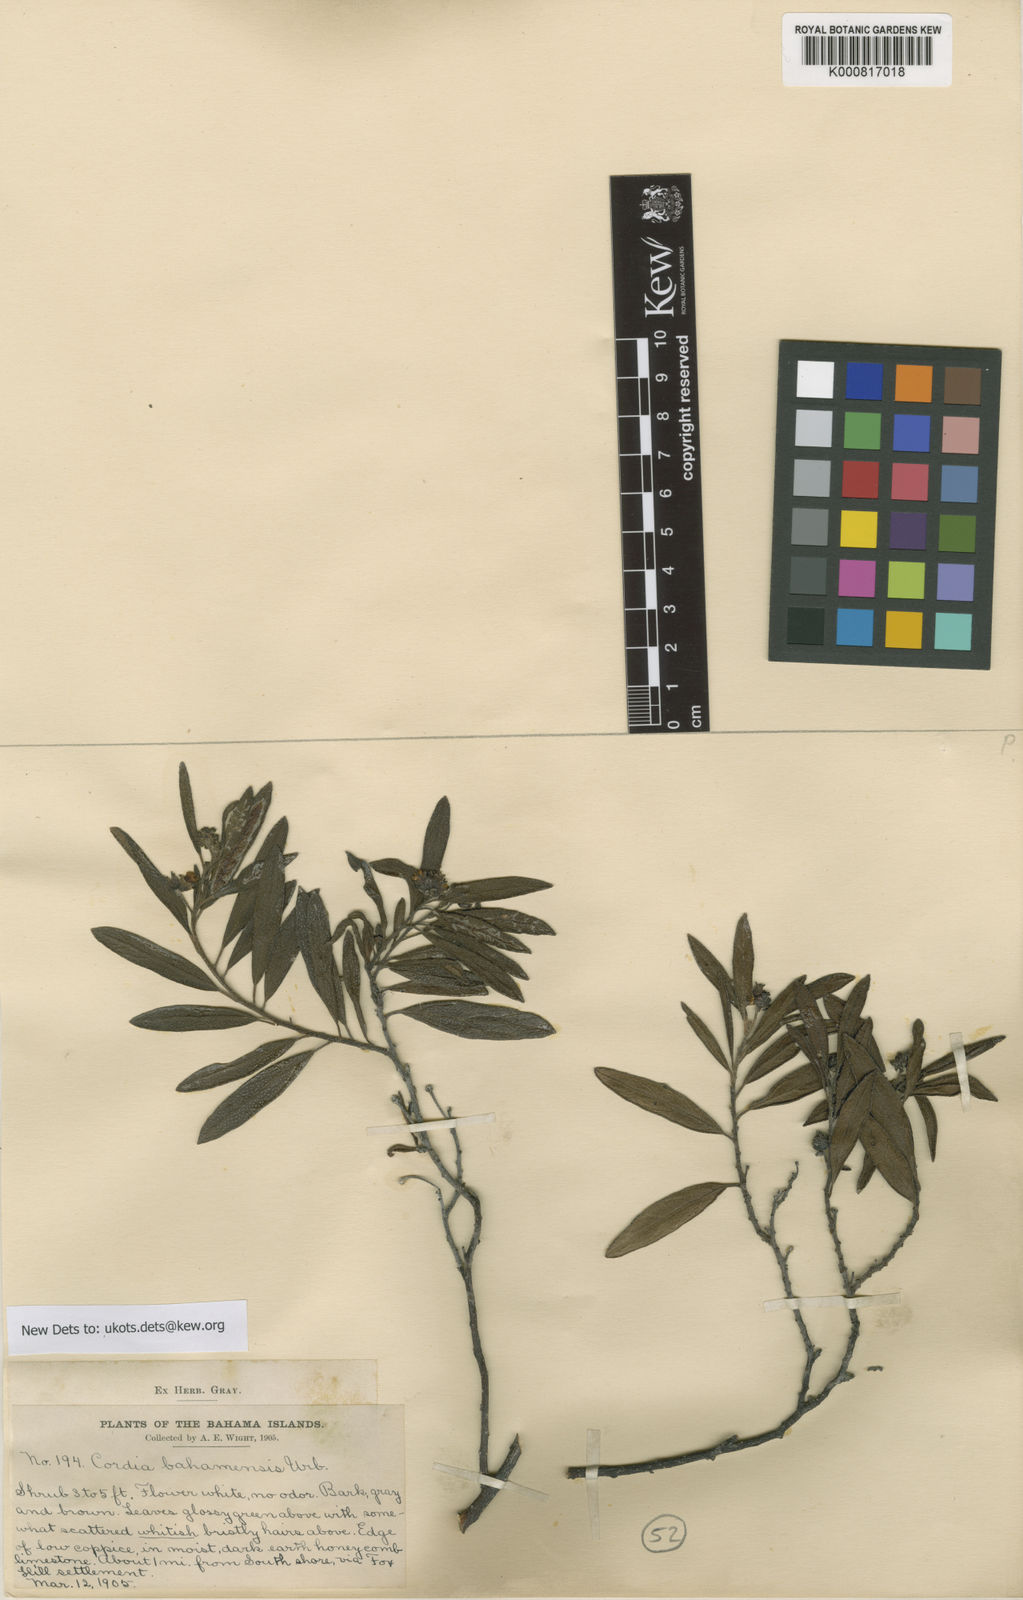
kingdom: Plantae
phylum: Tracheophyta
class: Magnoliopsida
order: Boraginales
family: Cordiaceae
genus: Varronia
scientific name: Varronia bahamensis
